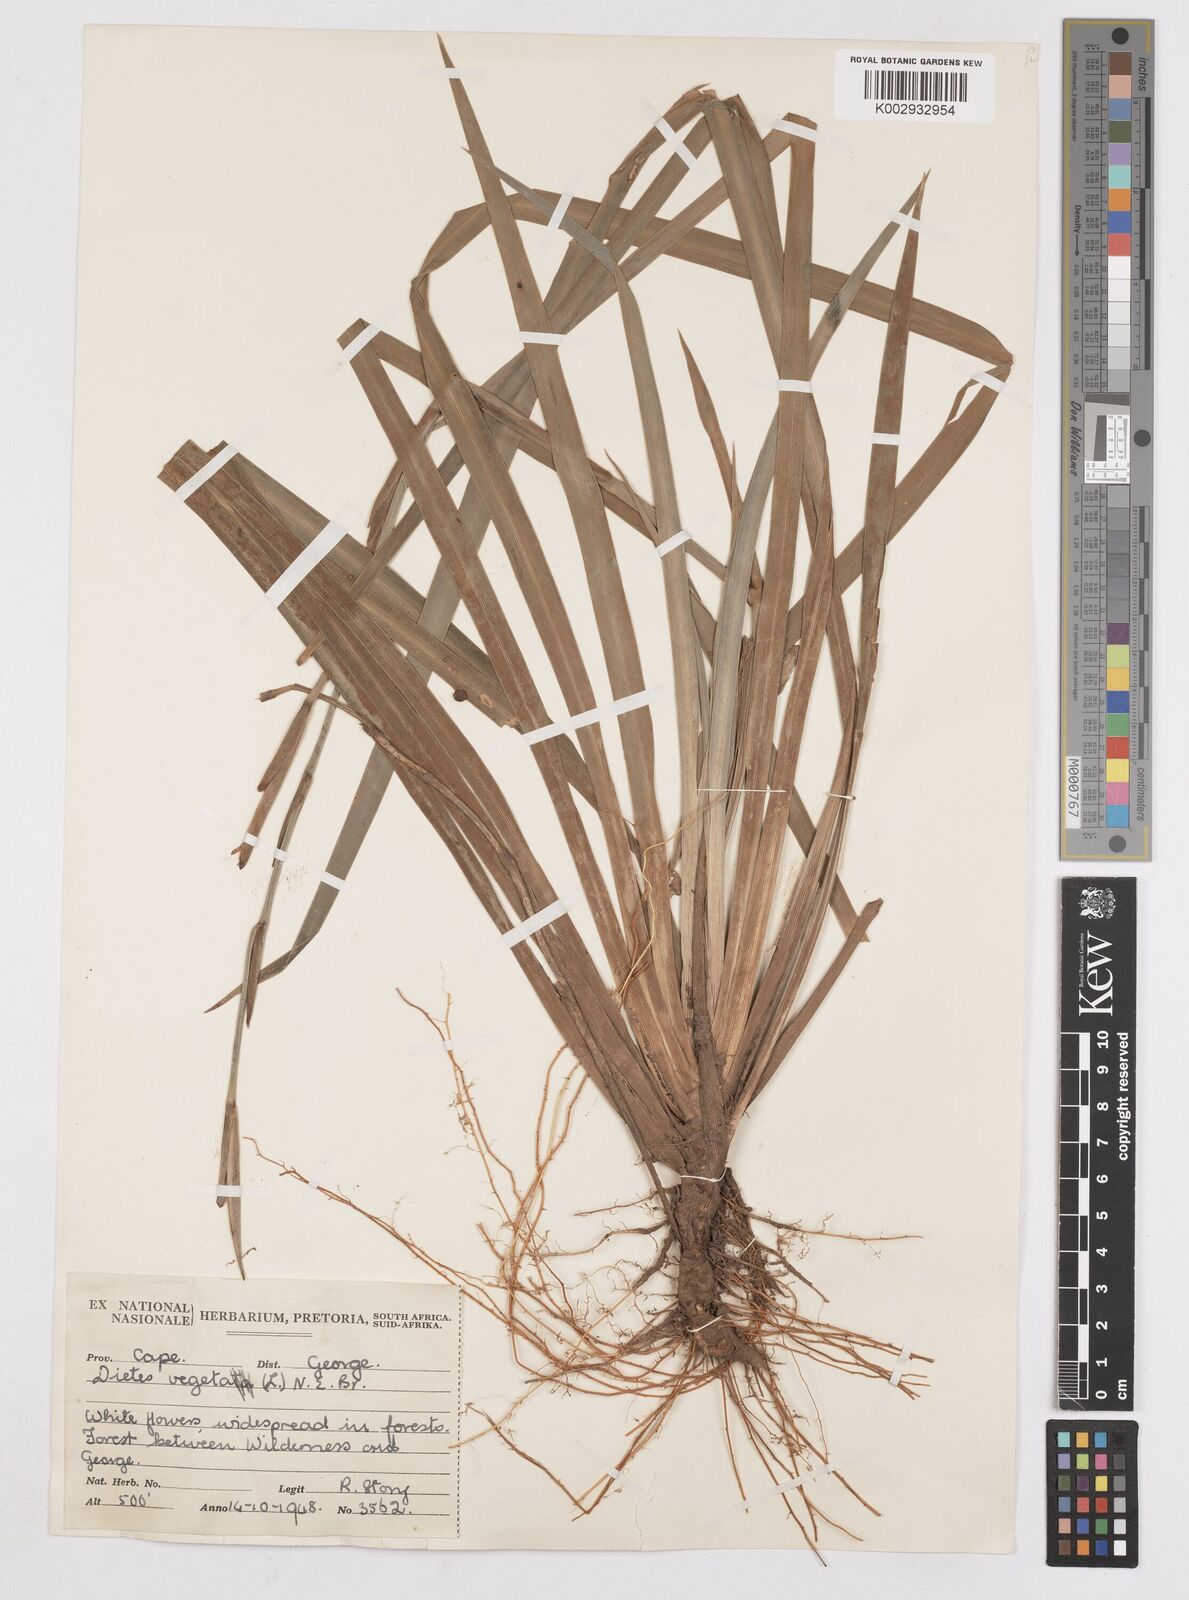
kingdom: Plantae
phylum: Tracheophyta
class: Liliopsida
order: Asparagales
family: Iridaceae
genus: Dietes
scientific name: Dietes iridioides
